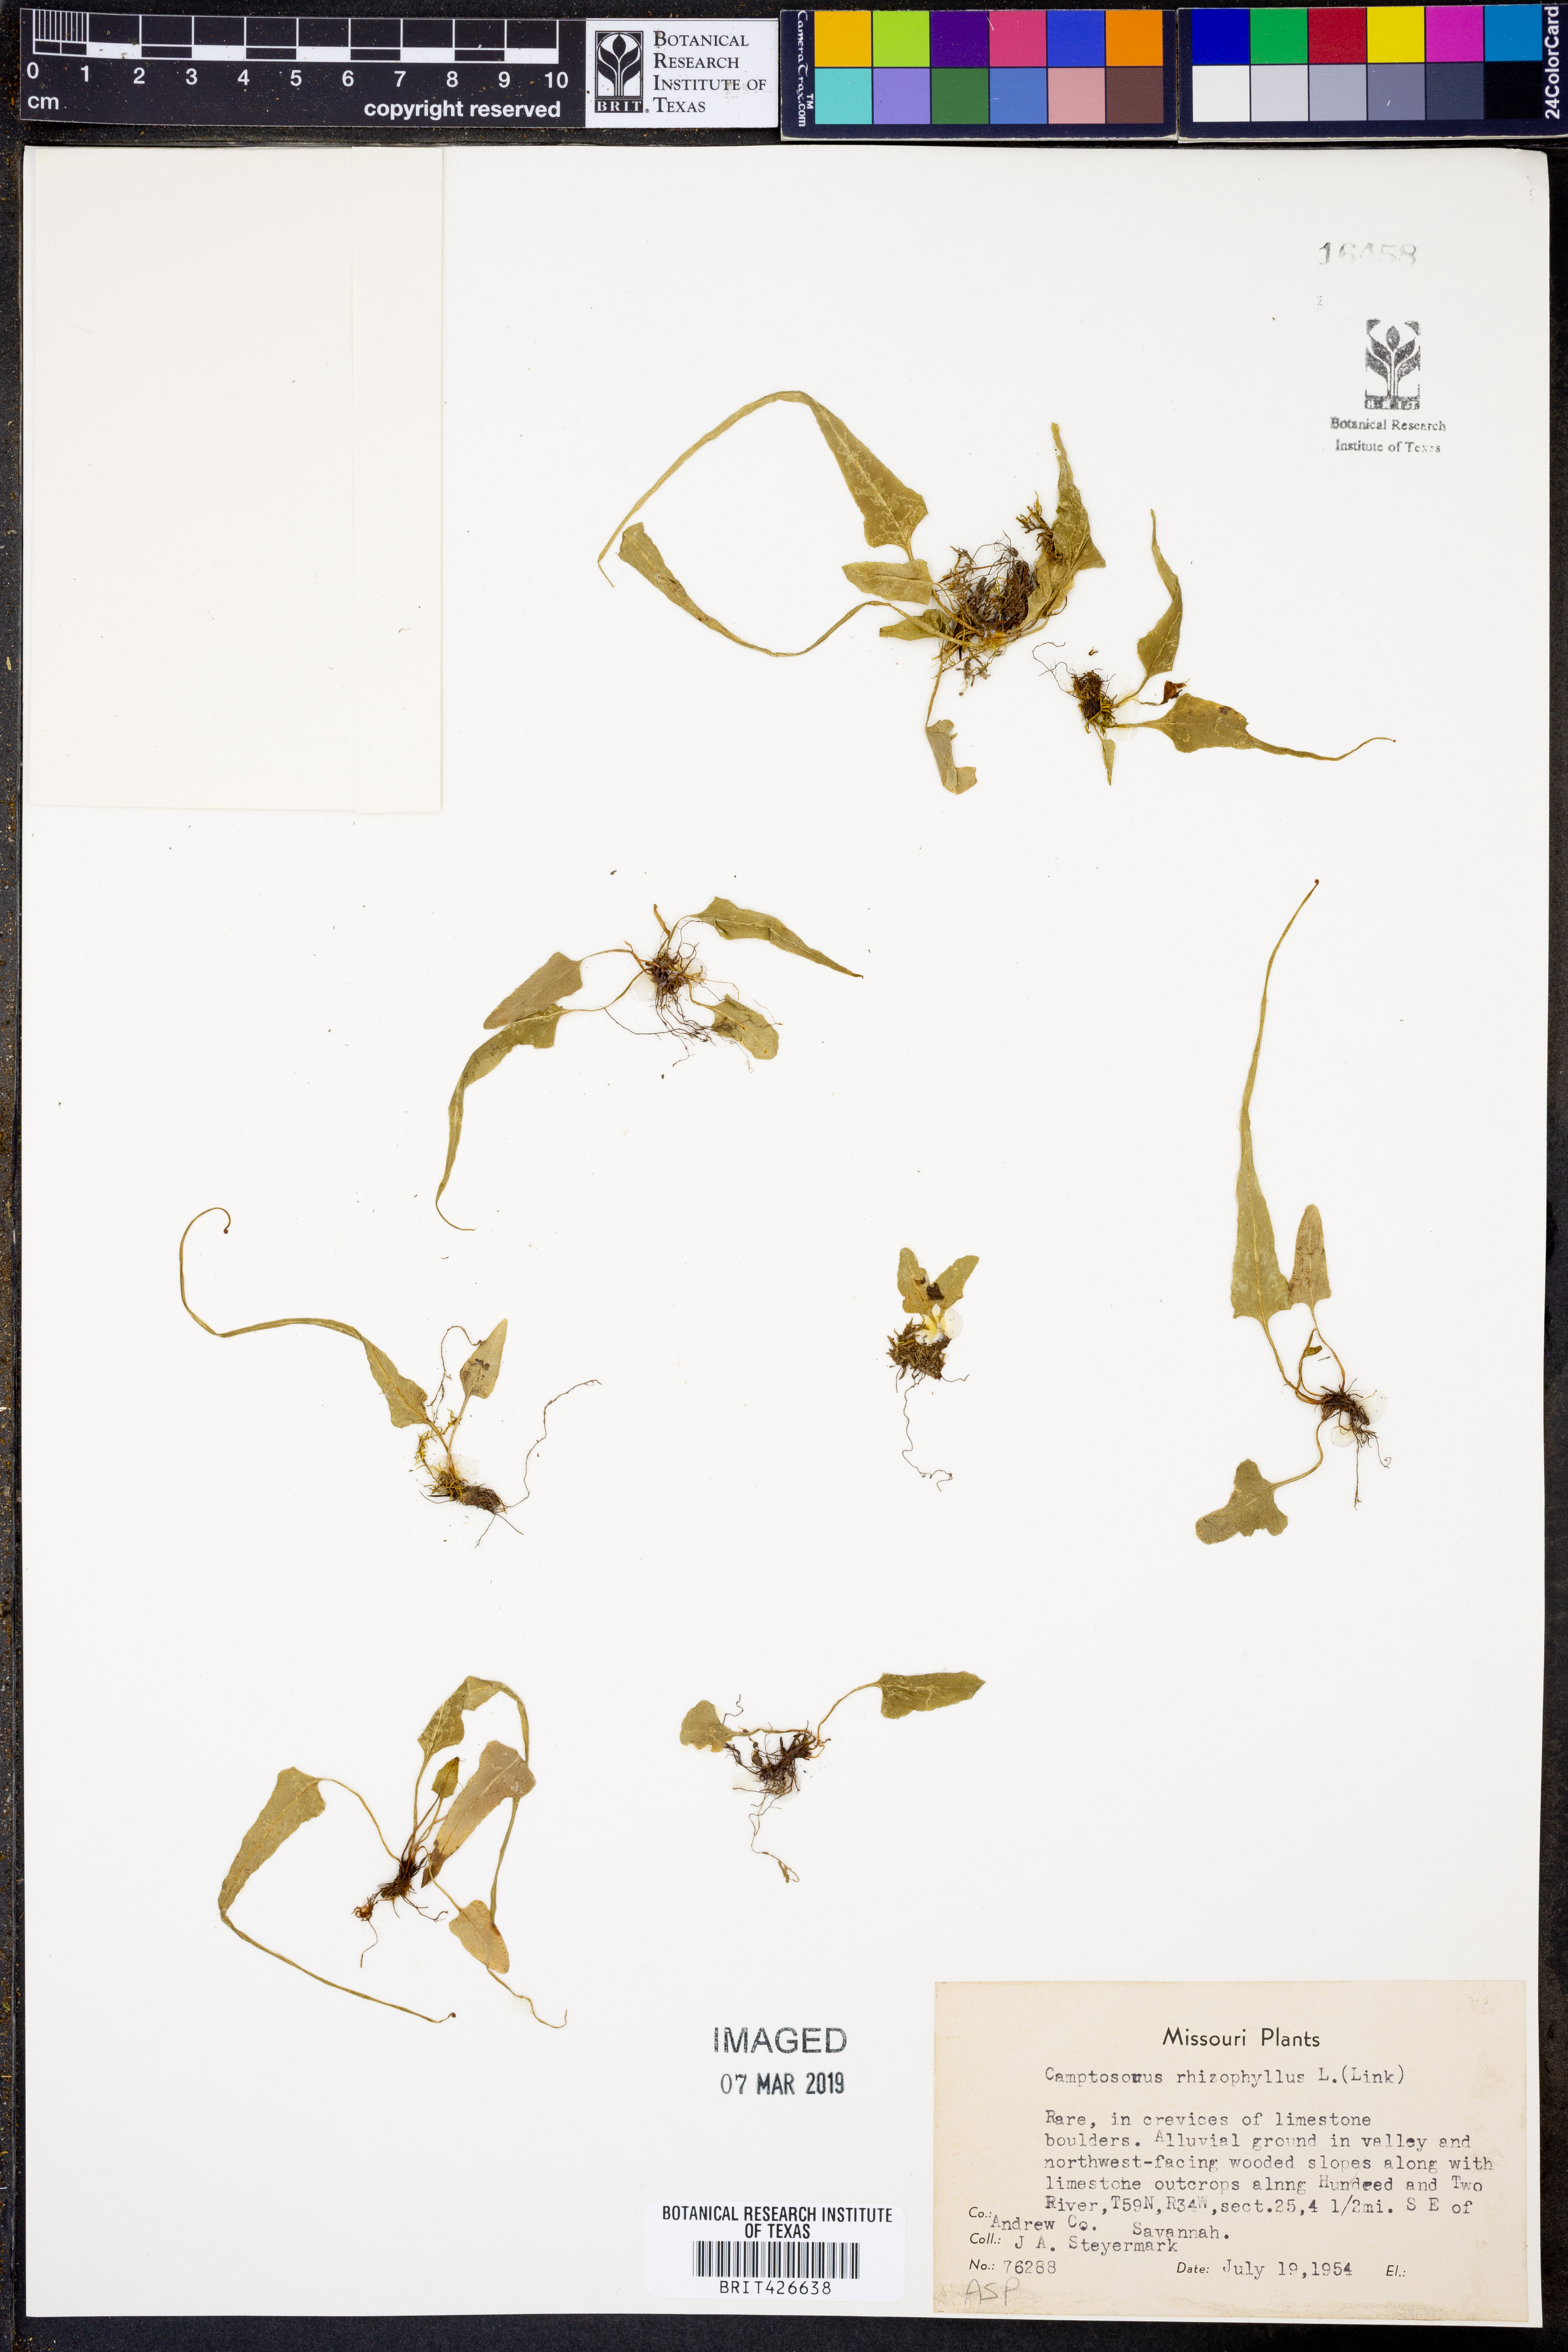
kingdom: Plantae
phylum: Tracheophyta
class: Polypodiopsida
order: Polypodiales
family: Aspleniaceae
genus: Asplenium
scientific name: Asplenium rhizophyllum
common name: Walking fern
